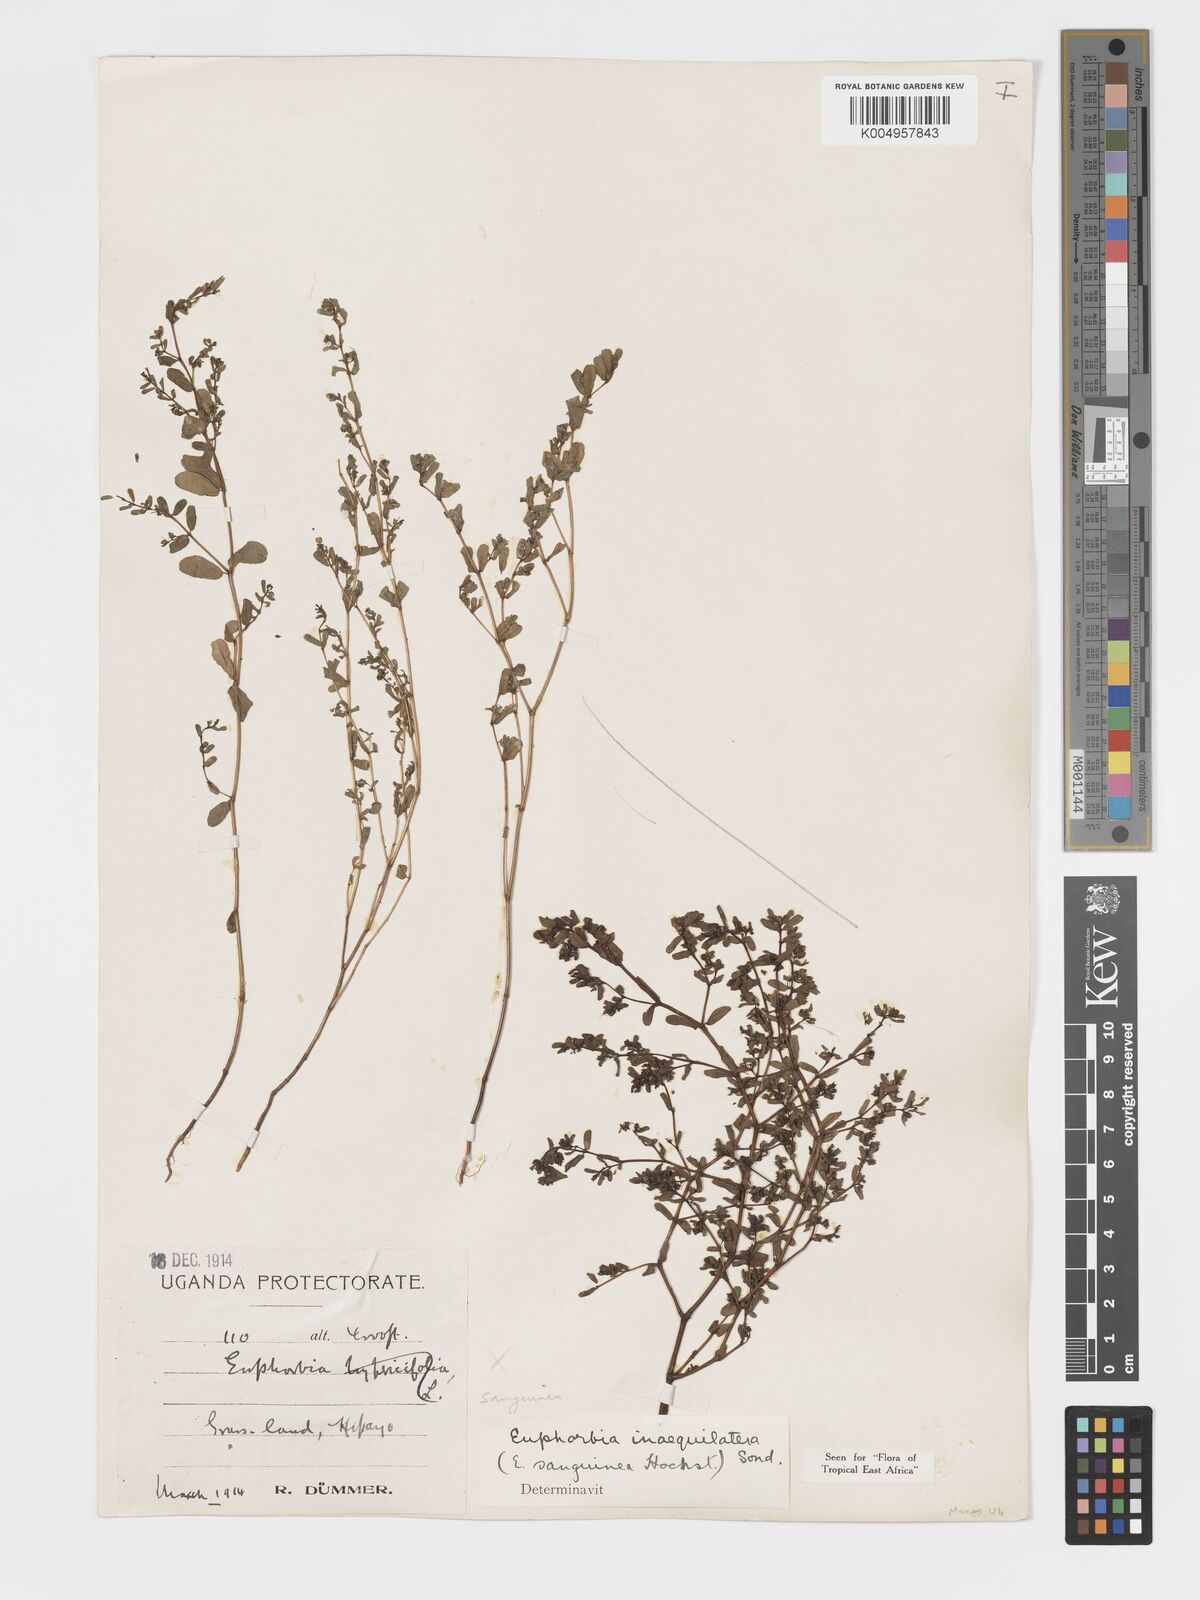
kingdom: Plantae
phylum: Tracheophyta
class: Magnoliopsida
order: Malpighiales
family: Euphorbiaceae
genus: Euphorbia
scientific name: Euphorbia inaequilatera
